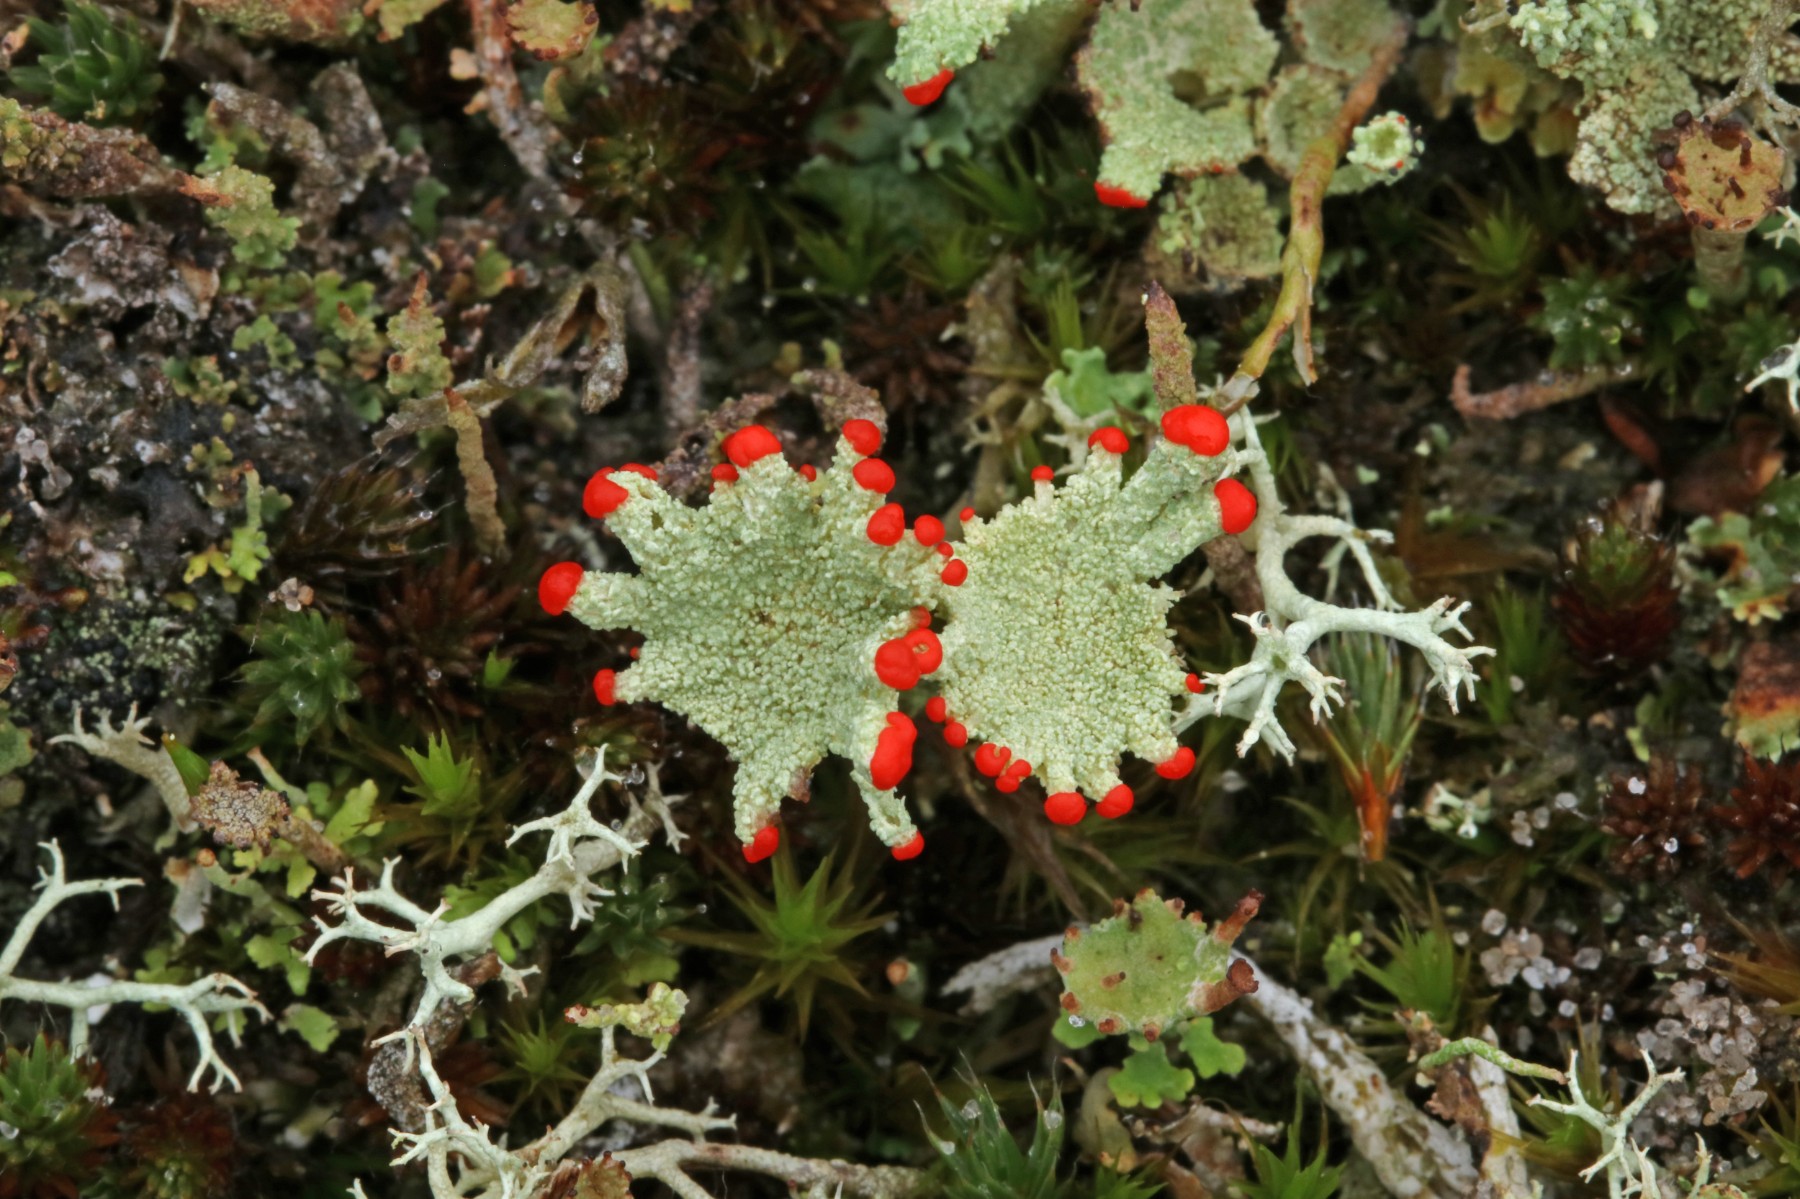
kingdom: Fungi
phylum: Ascomycota
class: Lecanoromycetes
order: Lecanorales
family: Cladoniaceae
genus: Cladonia
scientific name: Cladonia diversa
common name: rød bægerlav
